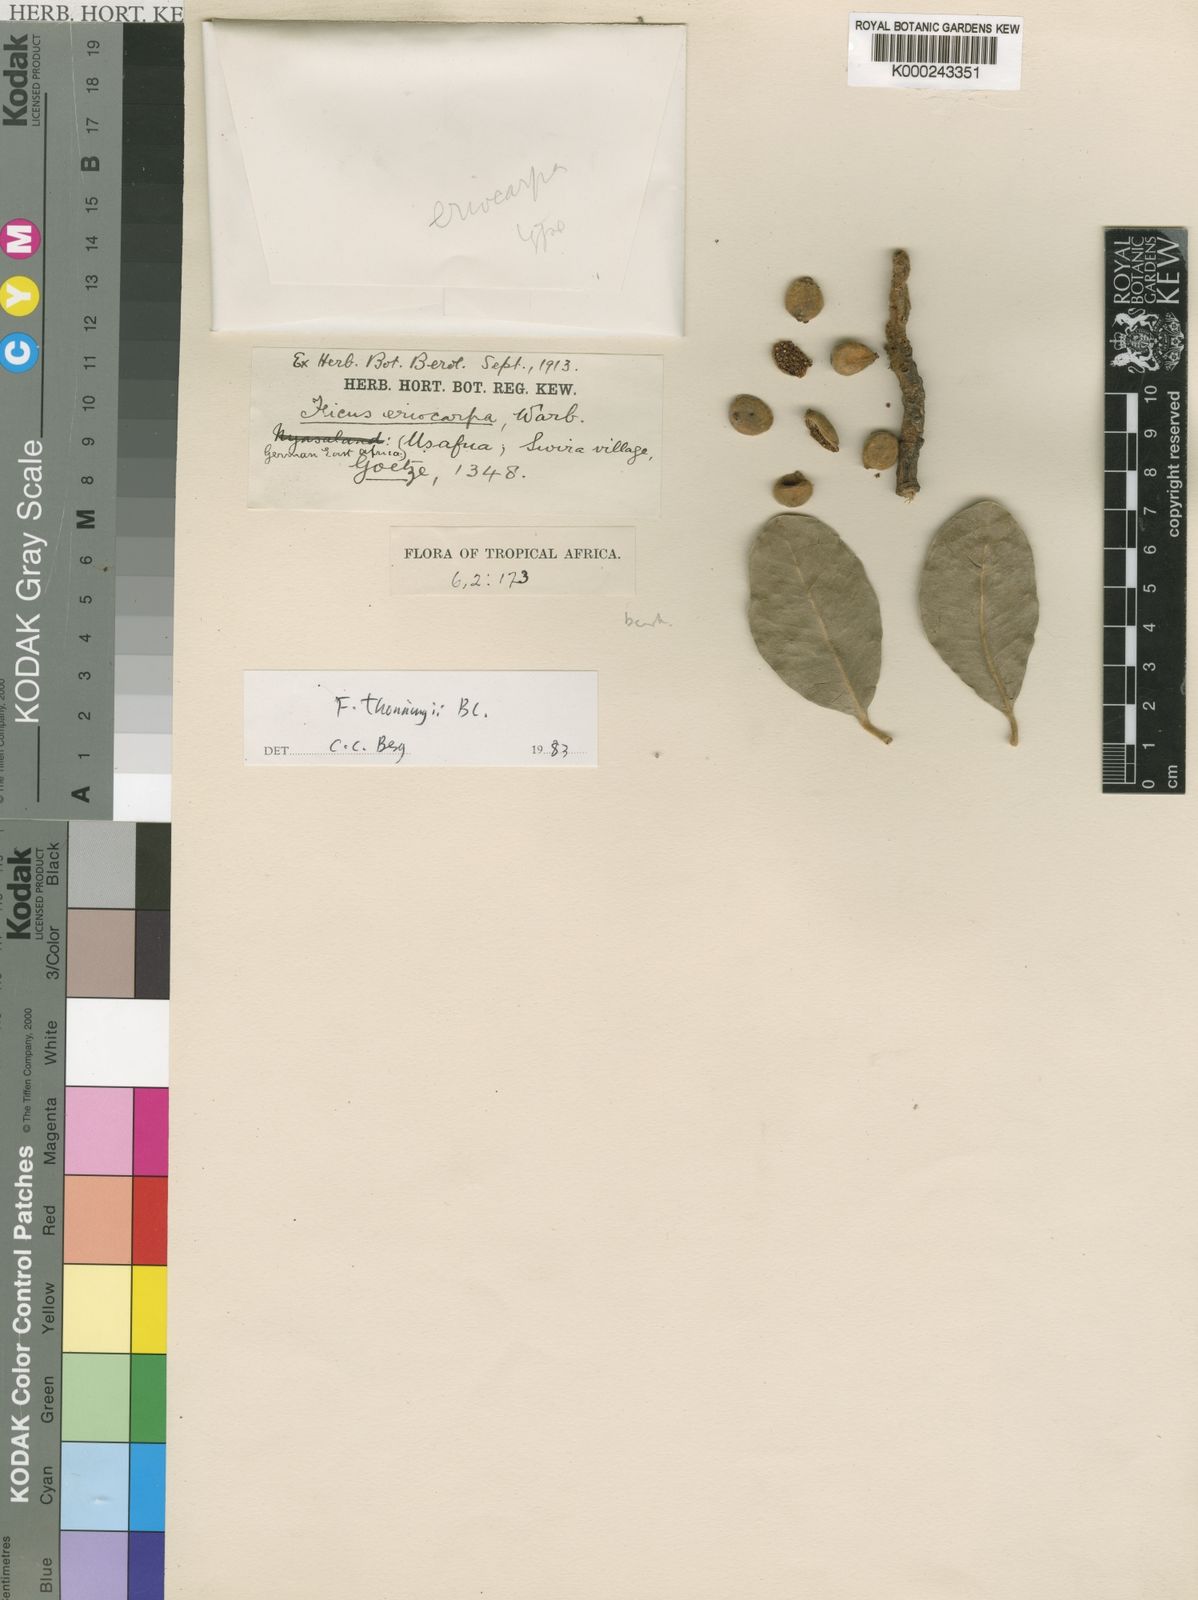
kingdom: Plantae
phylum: Tracheophyta
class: Magnoliopsida
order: Rosales
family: Moraceae
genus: Ficus
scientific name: Ficus thonningii
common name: Fig
